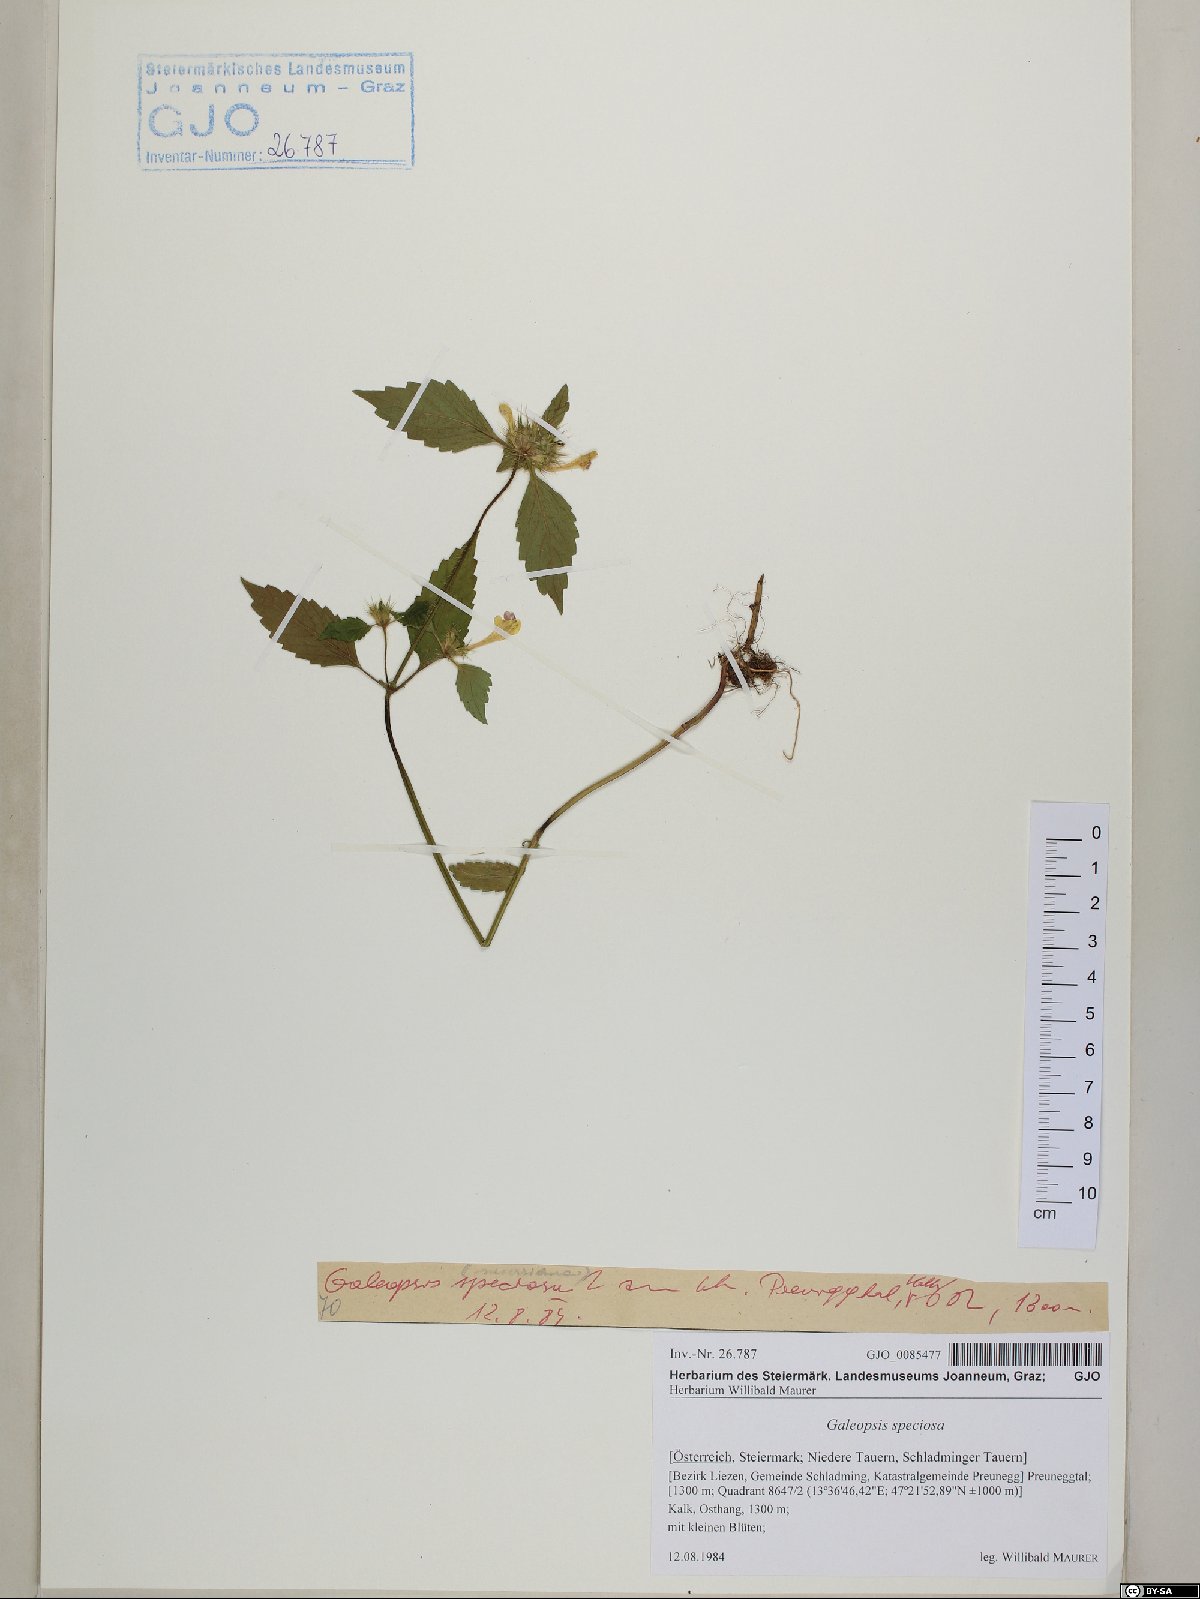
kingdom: Plantae
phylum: Tracheophyta
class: Magnoliopsida
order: Lamiales
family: Lamiaceae
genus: Galeopsis
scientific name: Galeopsis speciosa
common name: Large-flowered hemp-nettle
